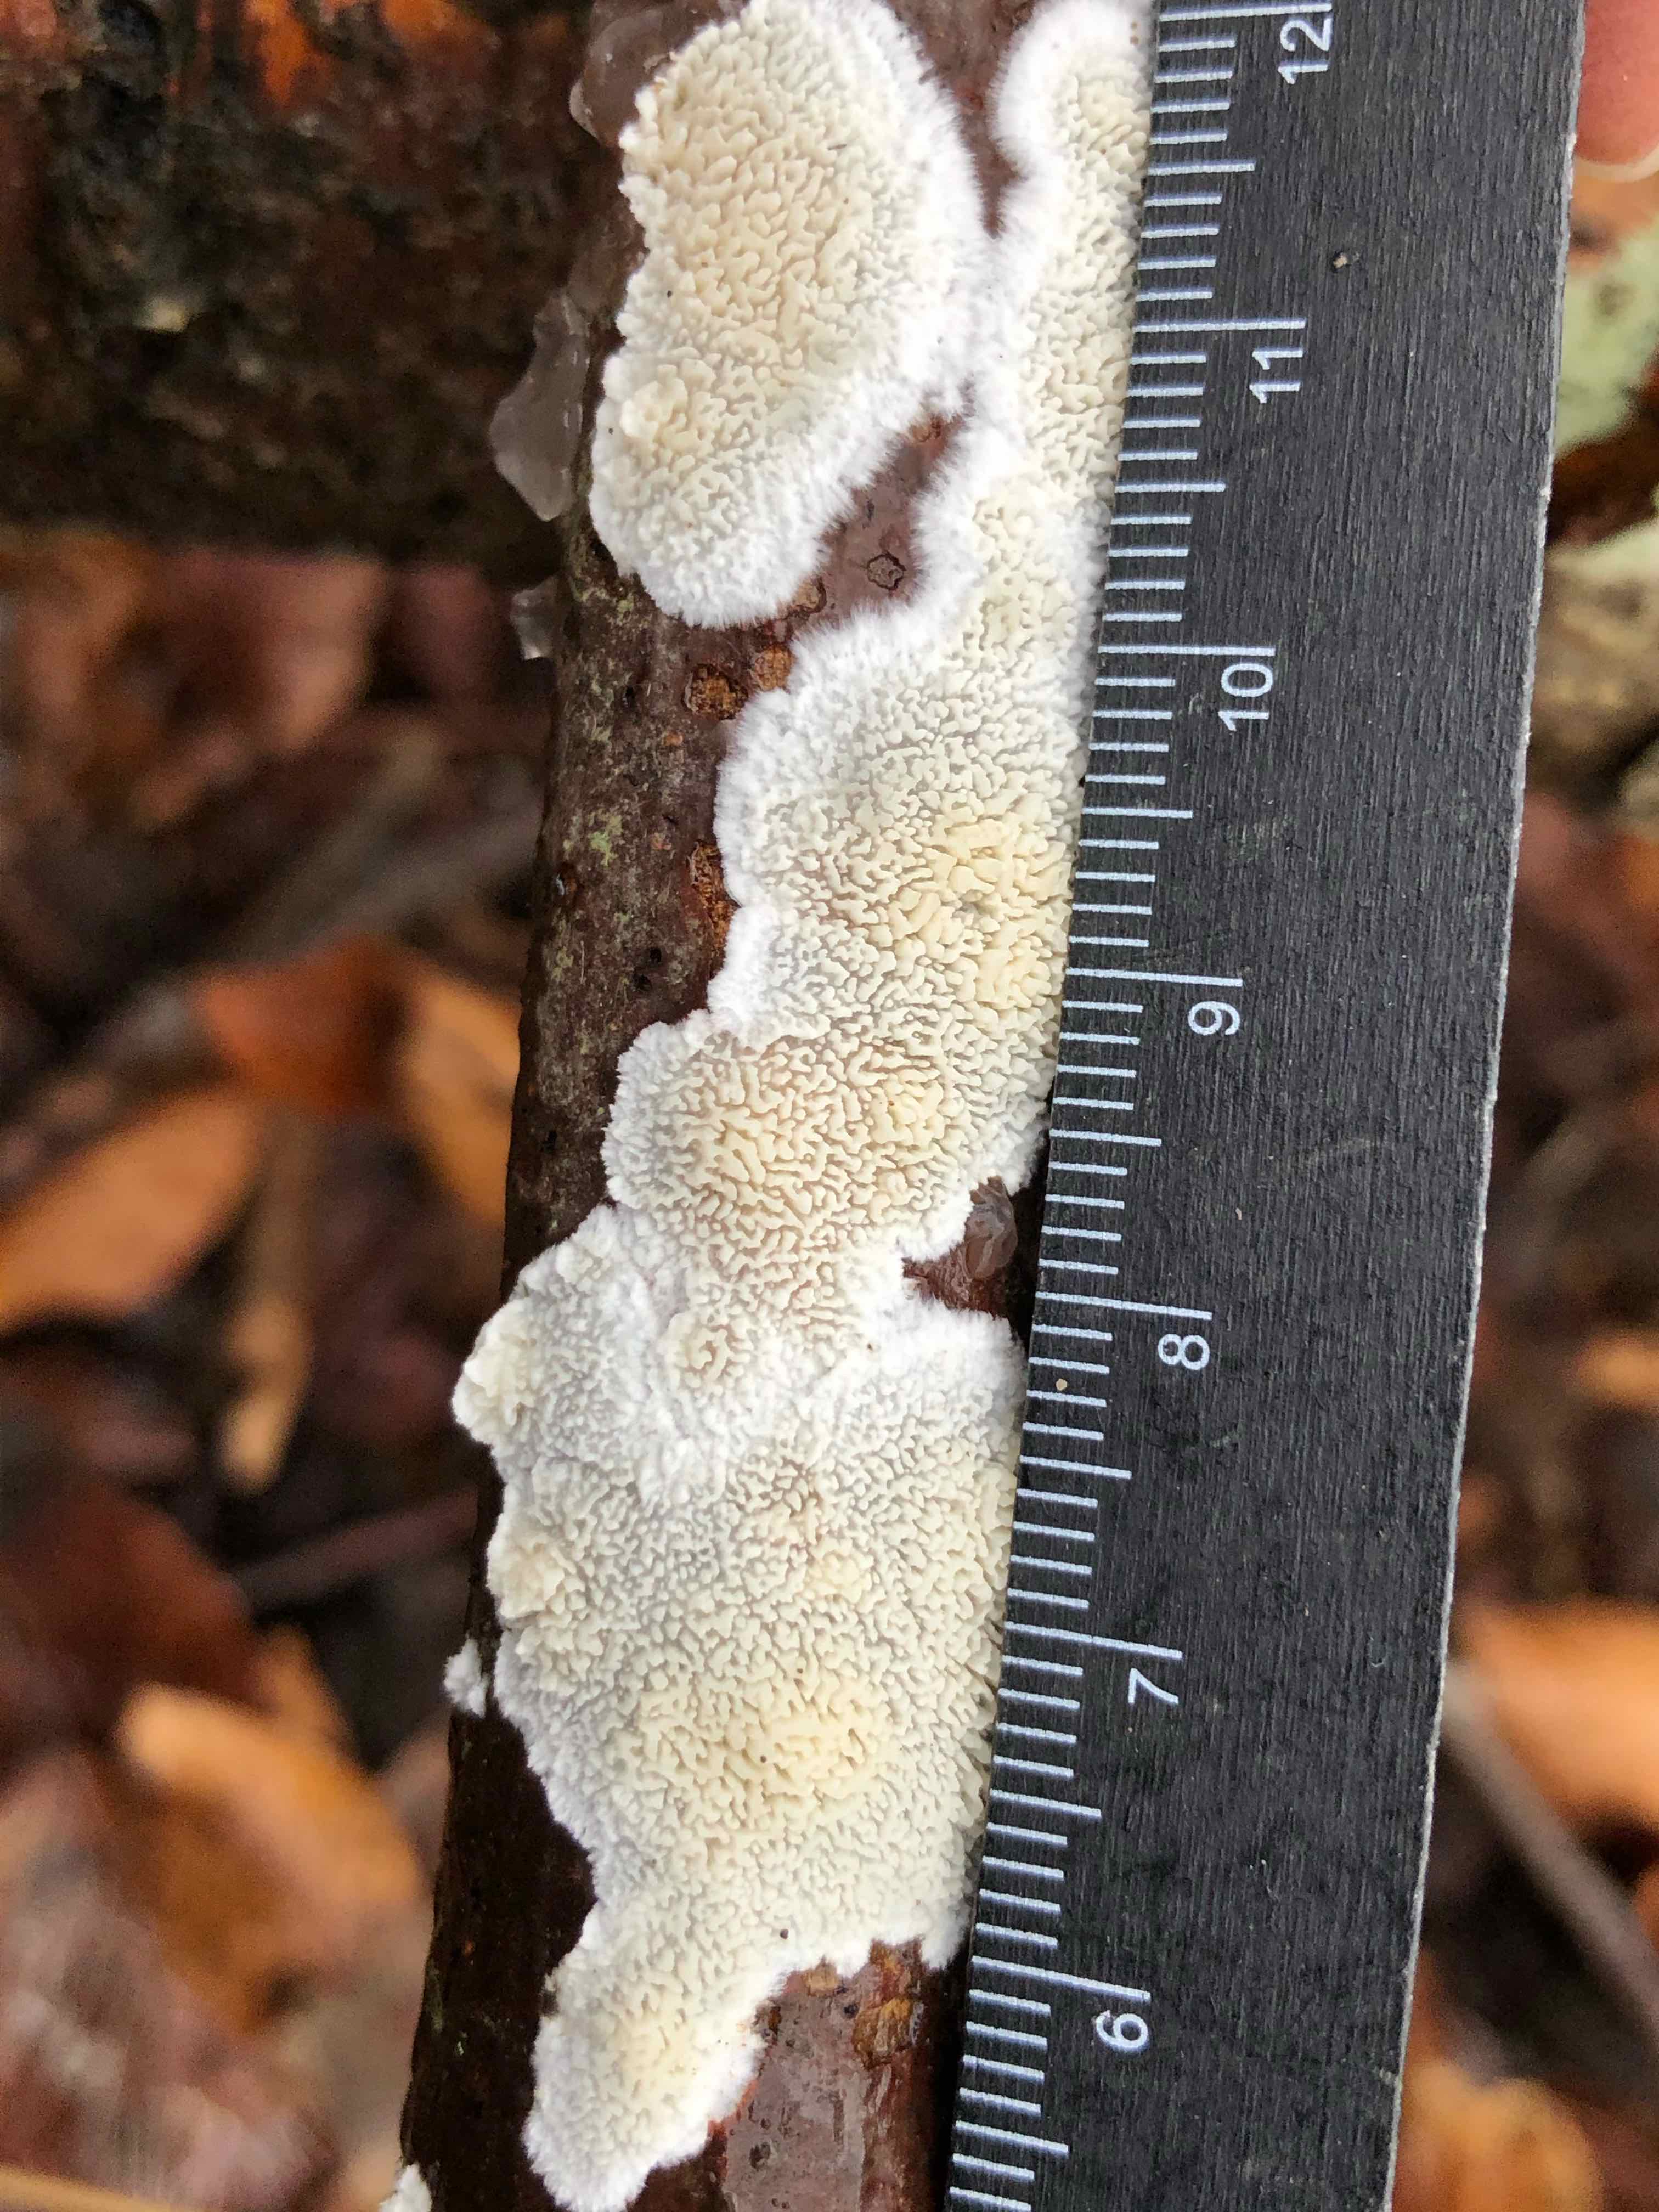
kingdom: Fungi
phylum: Basidiomycota
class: Agaricomycetes
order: Hymenochaetales
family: Schizoporaceae
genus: Xylodon
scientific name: Xylodon subtropicus
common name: labyrint-tandsvamp
